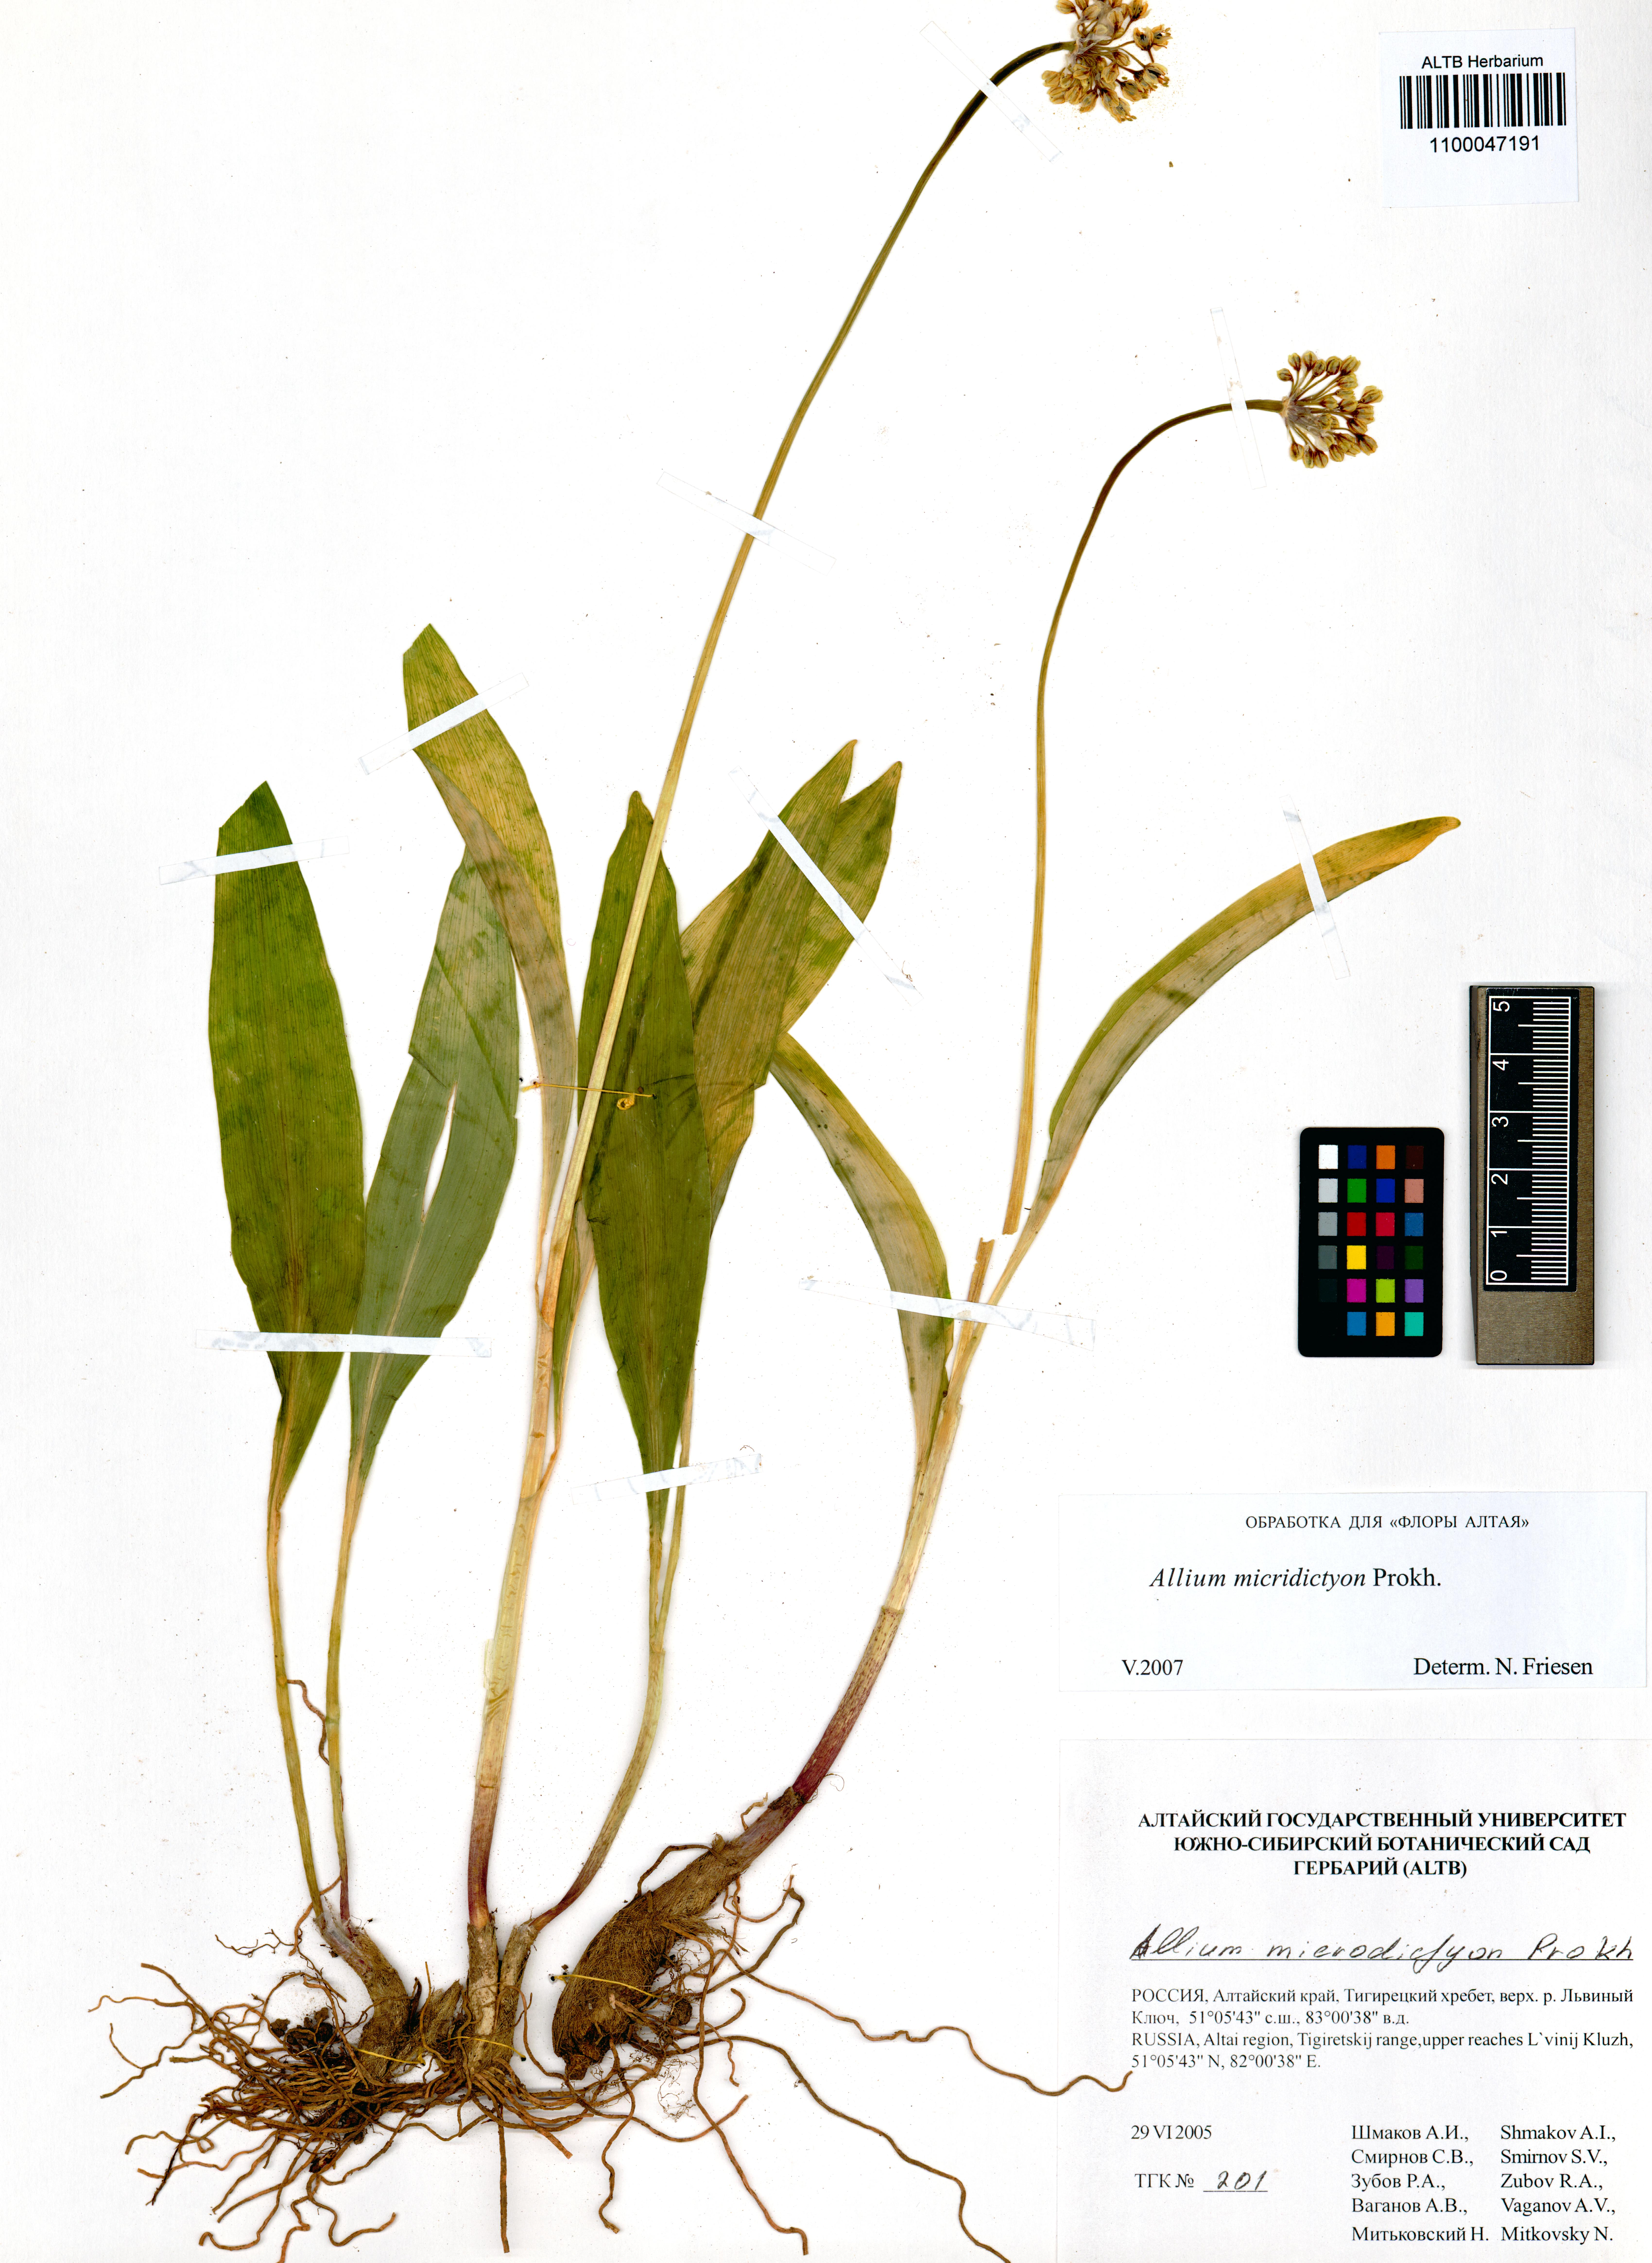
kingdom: Plantae
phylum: Tracheophyta
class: Liliopsida
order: Asparagales
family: Amaryllidaceae
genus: Allium
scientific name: Allium microdictyon
